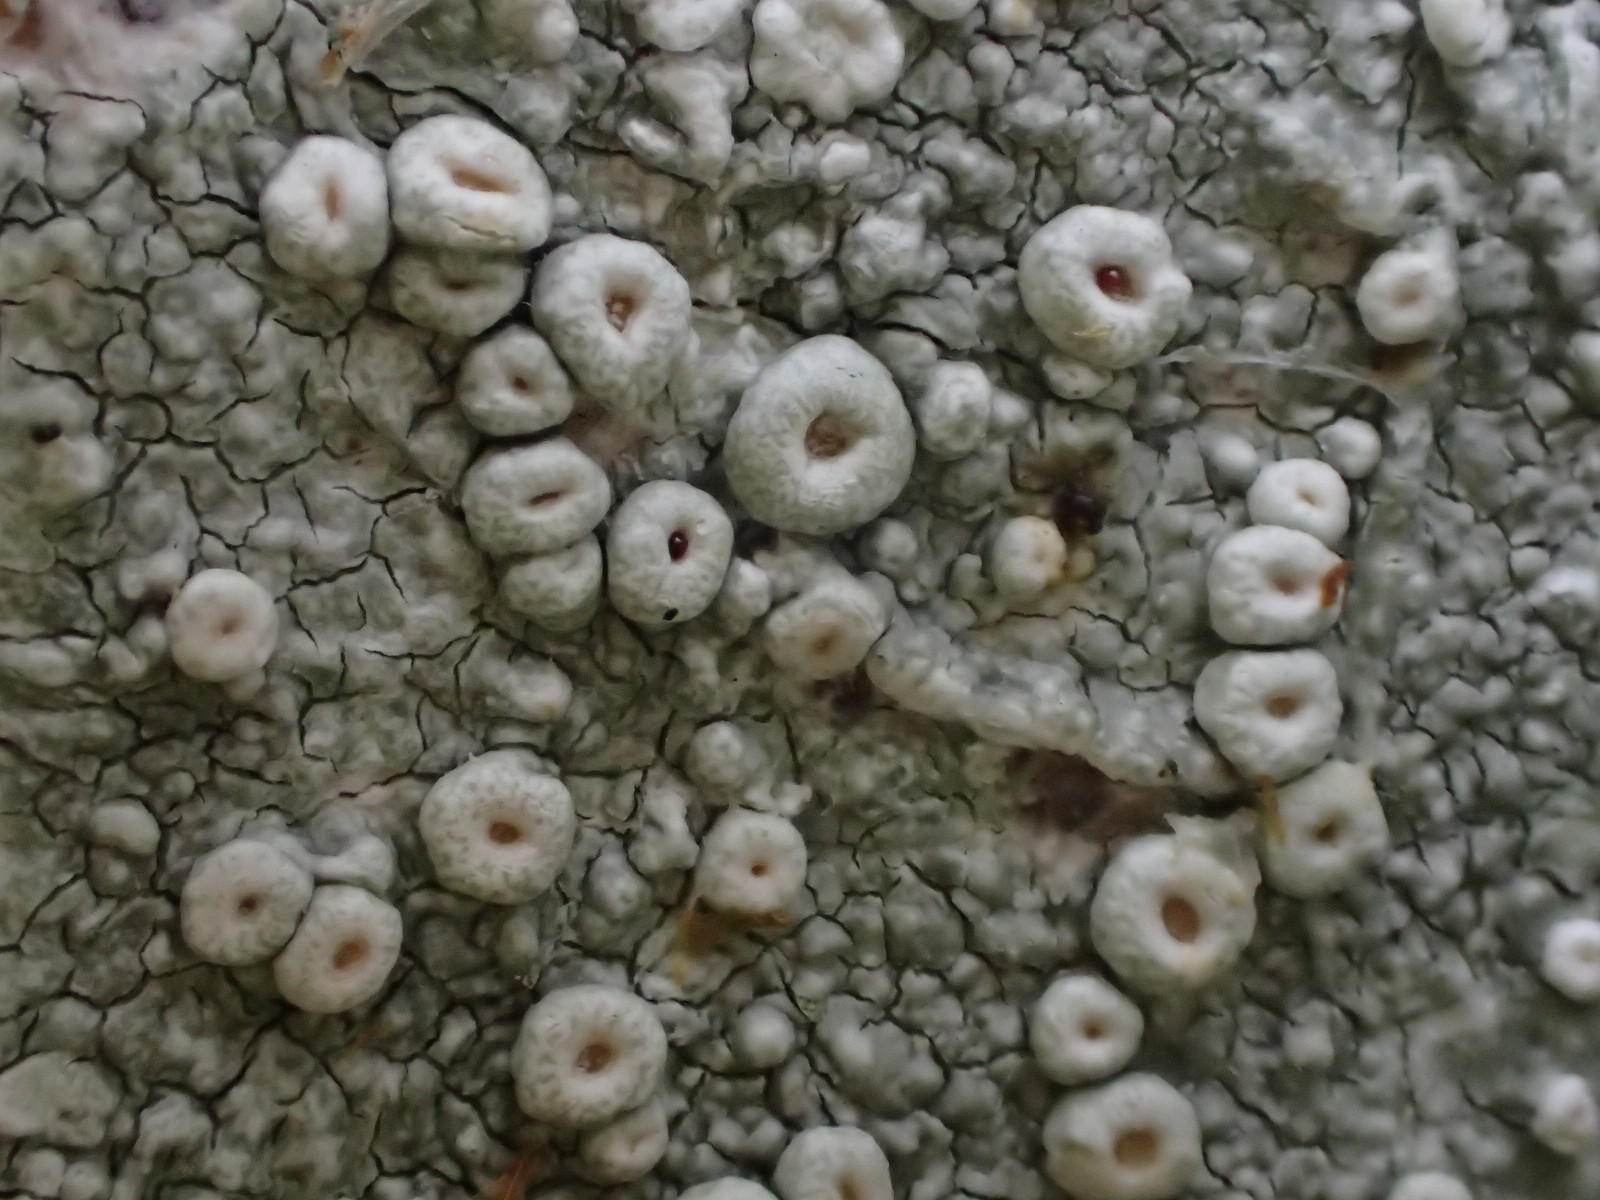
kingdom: Fungi
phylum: Ascomycota
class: Lecanoromycetes
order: Pertusariales
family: Ochrolechiaceae
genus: Ochrolechia
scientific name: Ochrolechia parella
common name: almindelig blegskivelav
